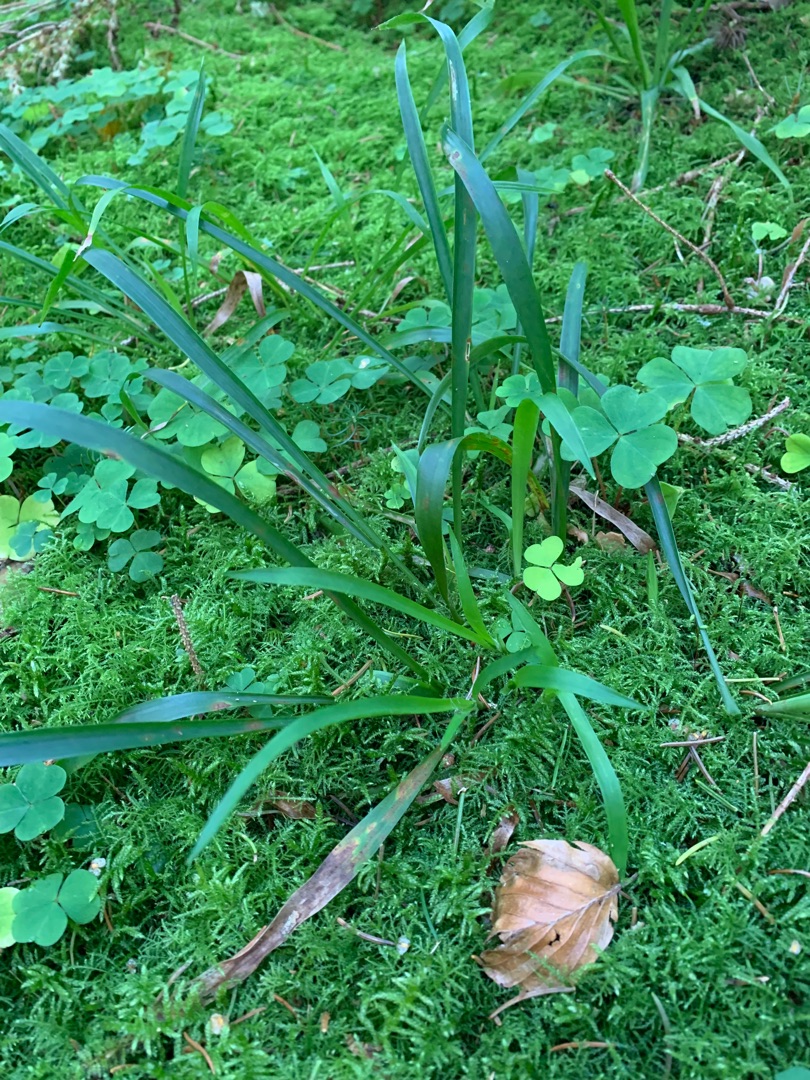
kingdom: Plantae
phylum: Tracheophyta
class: Liliopsida
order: Poales
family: Juncaceae
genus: Luzula
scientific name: Luzula pilosa
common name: Håret frytle
